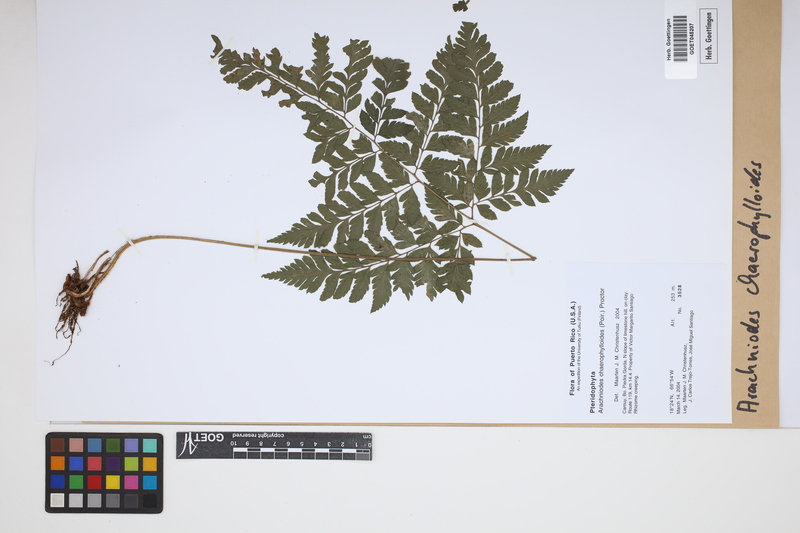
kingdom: Plantae
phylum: Tracheophyta
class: Polypodiopsida
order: Polypodiales
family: Dryopteridaceae
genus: Polystichopsis
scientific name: Polystichopsis chaerophylloides
